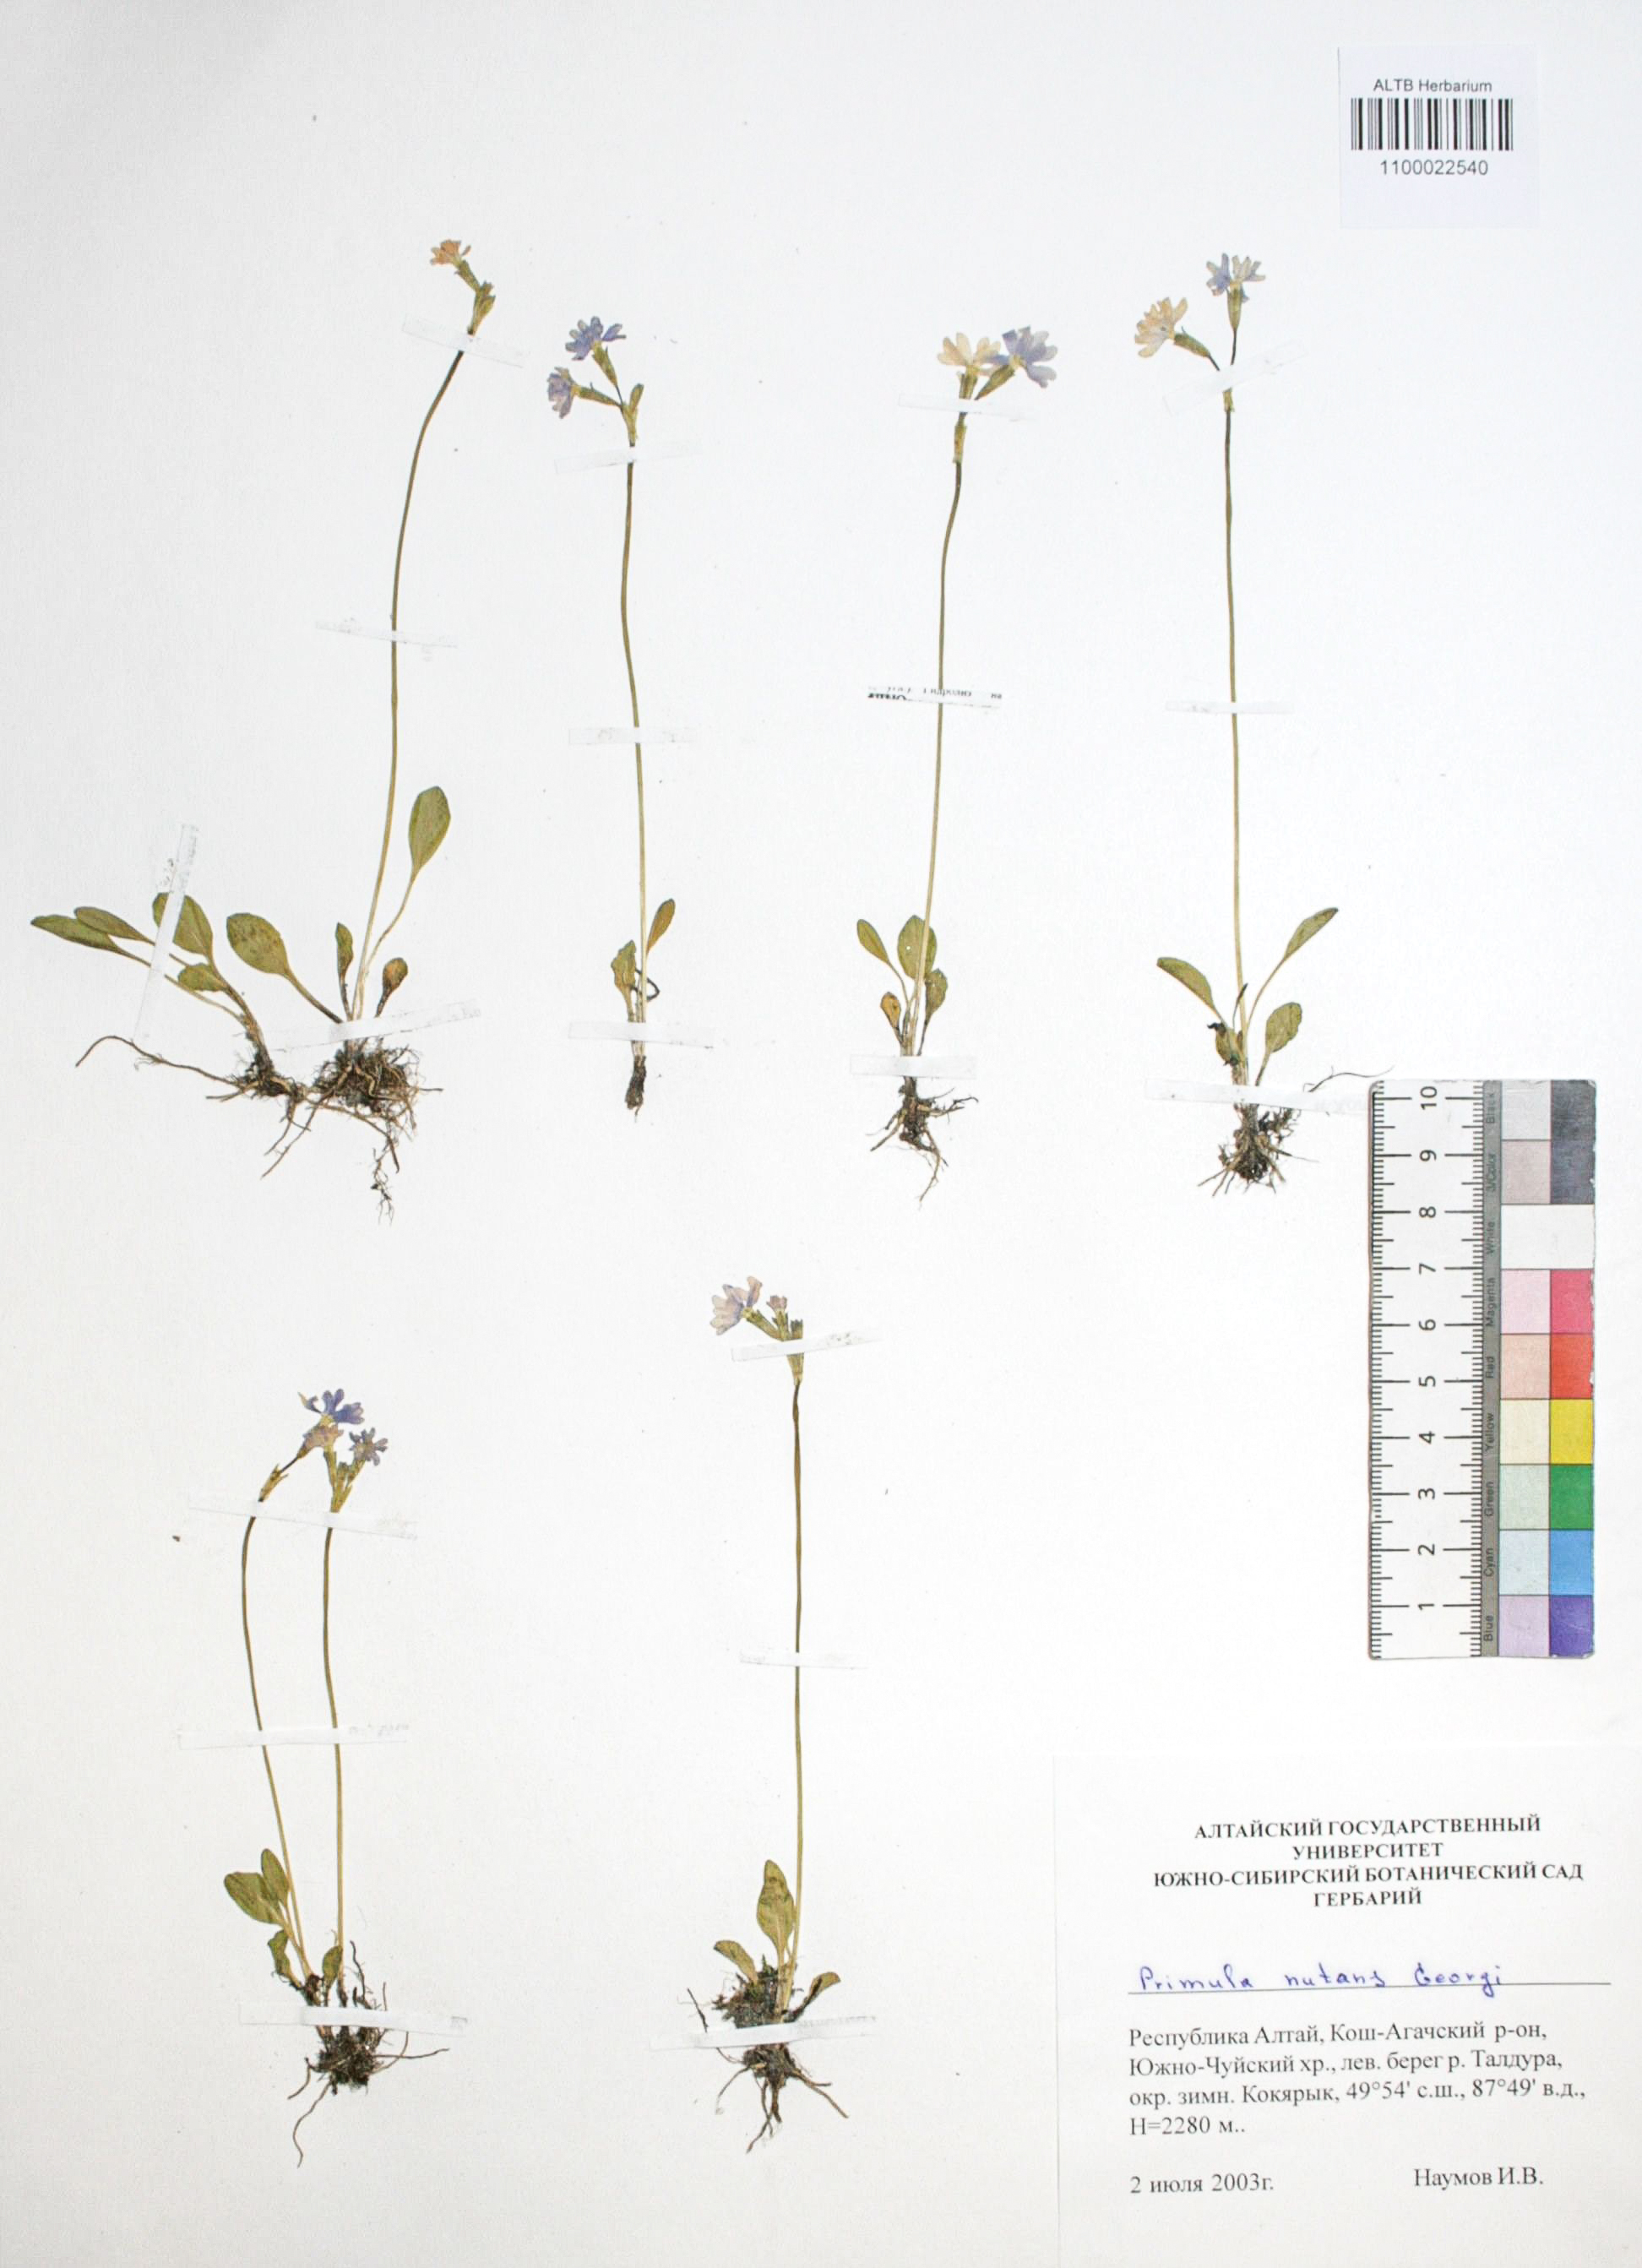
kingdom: Plantae
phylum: Tracheophyta
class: Magnoliopsida
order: Ericales
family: Primulaceae
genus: Primula
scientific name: Primula nutans
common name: Siberian primrose
